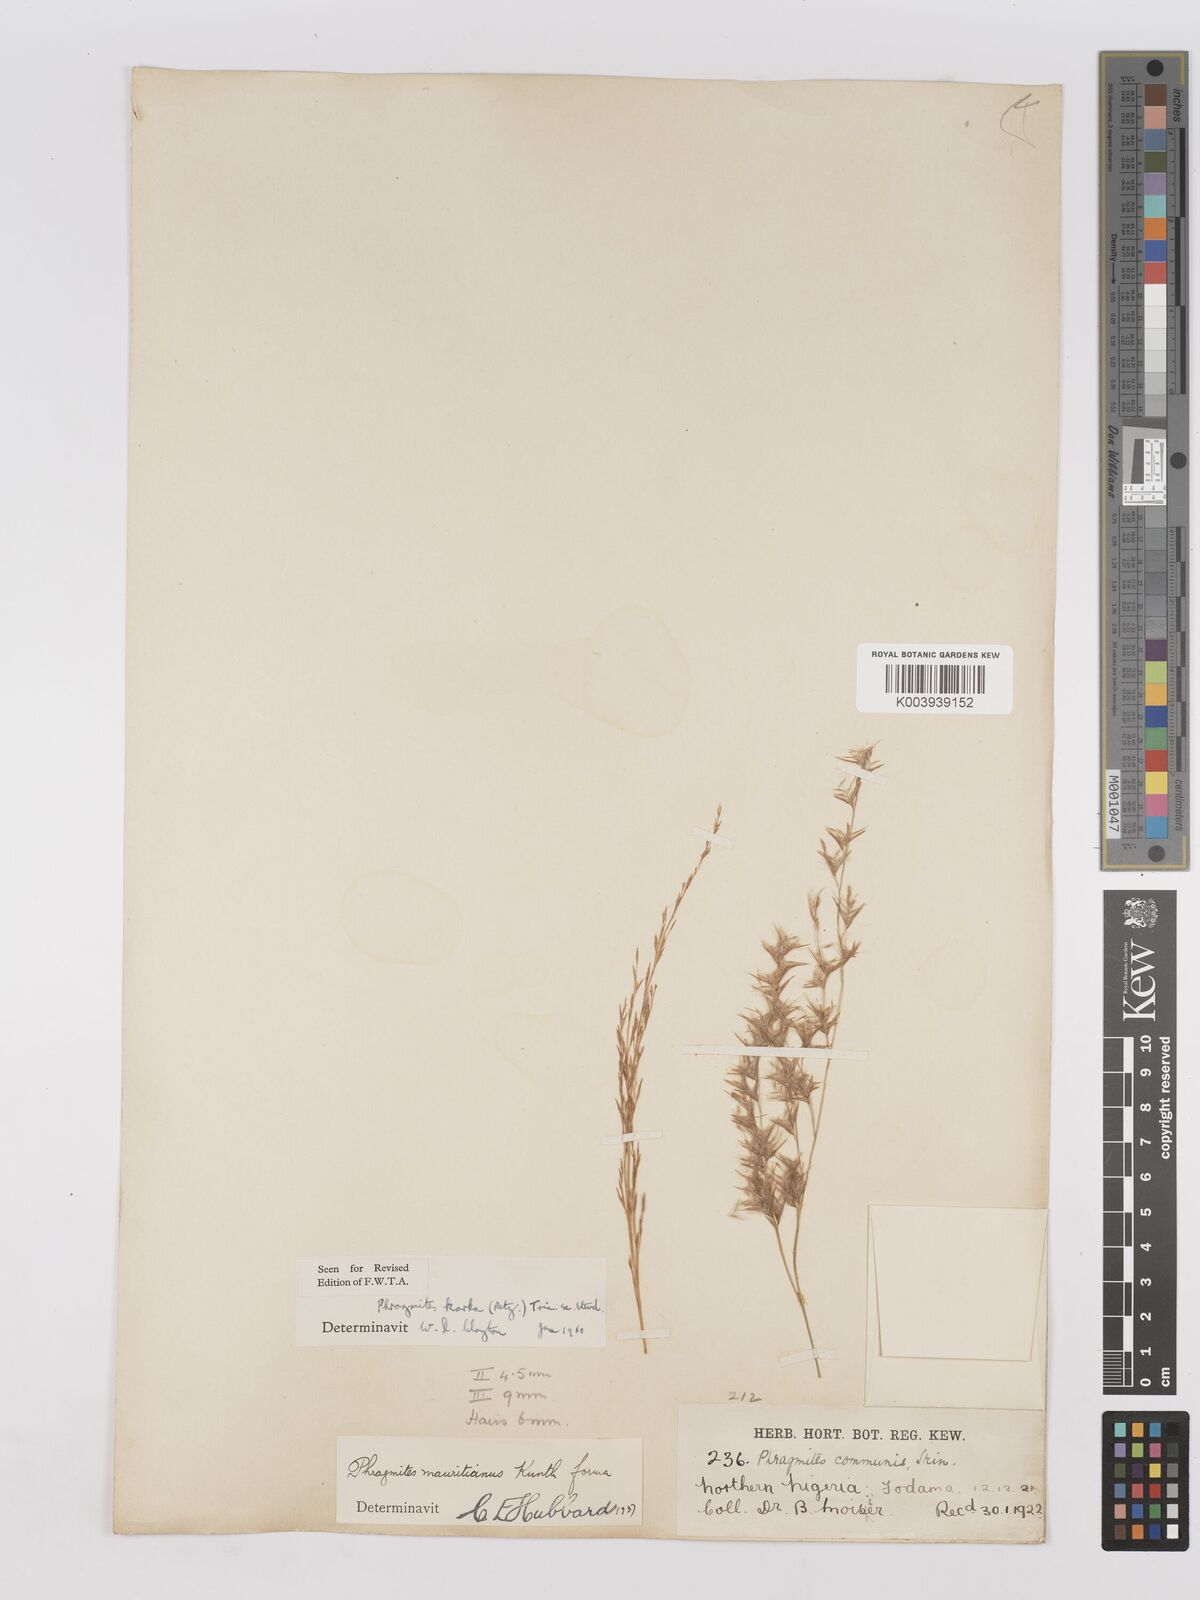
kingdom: Plantae
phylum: Tracheophyta
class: Liliopsida
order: Poales
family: Poaceae
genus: Phragmites
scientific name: Phragmites karka
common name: Tropical reed
